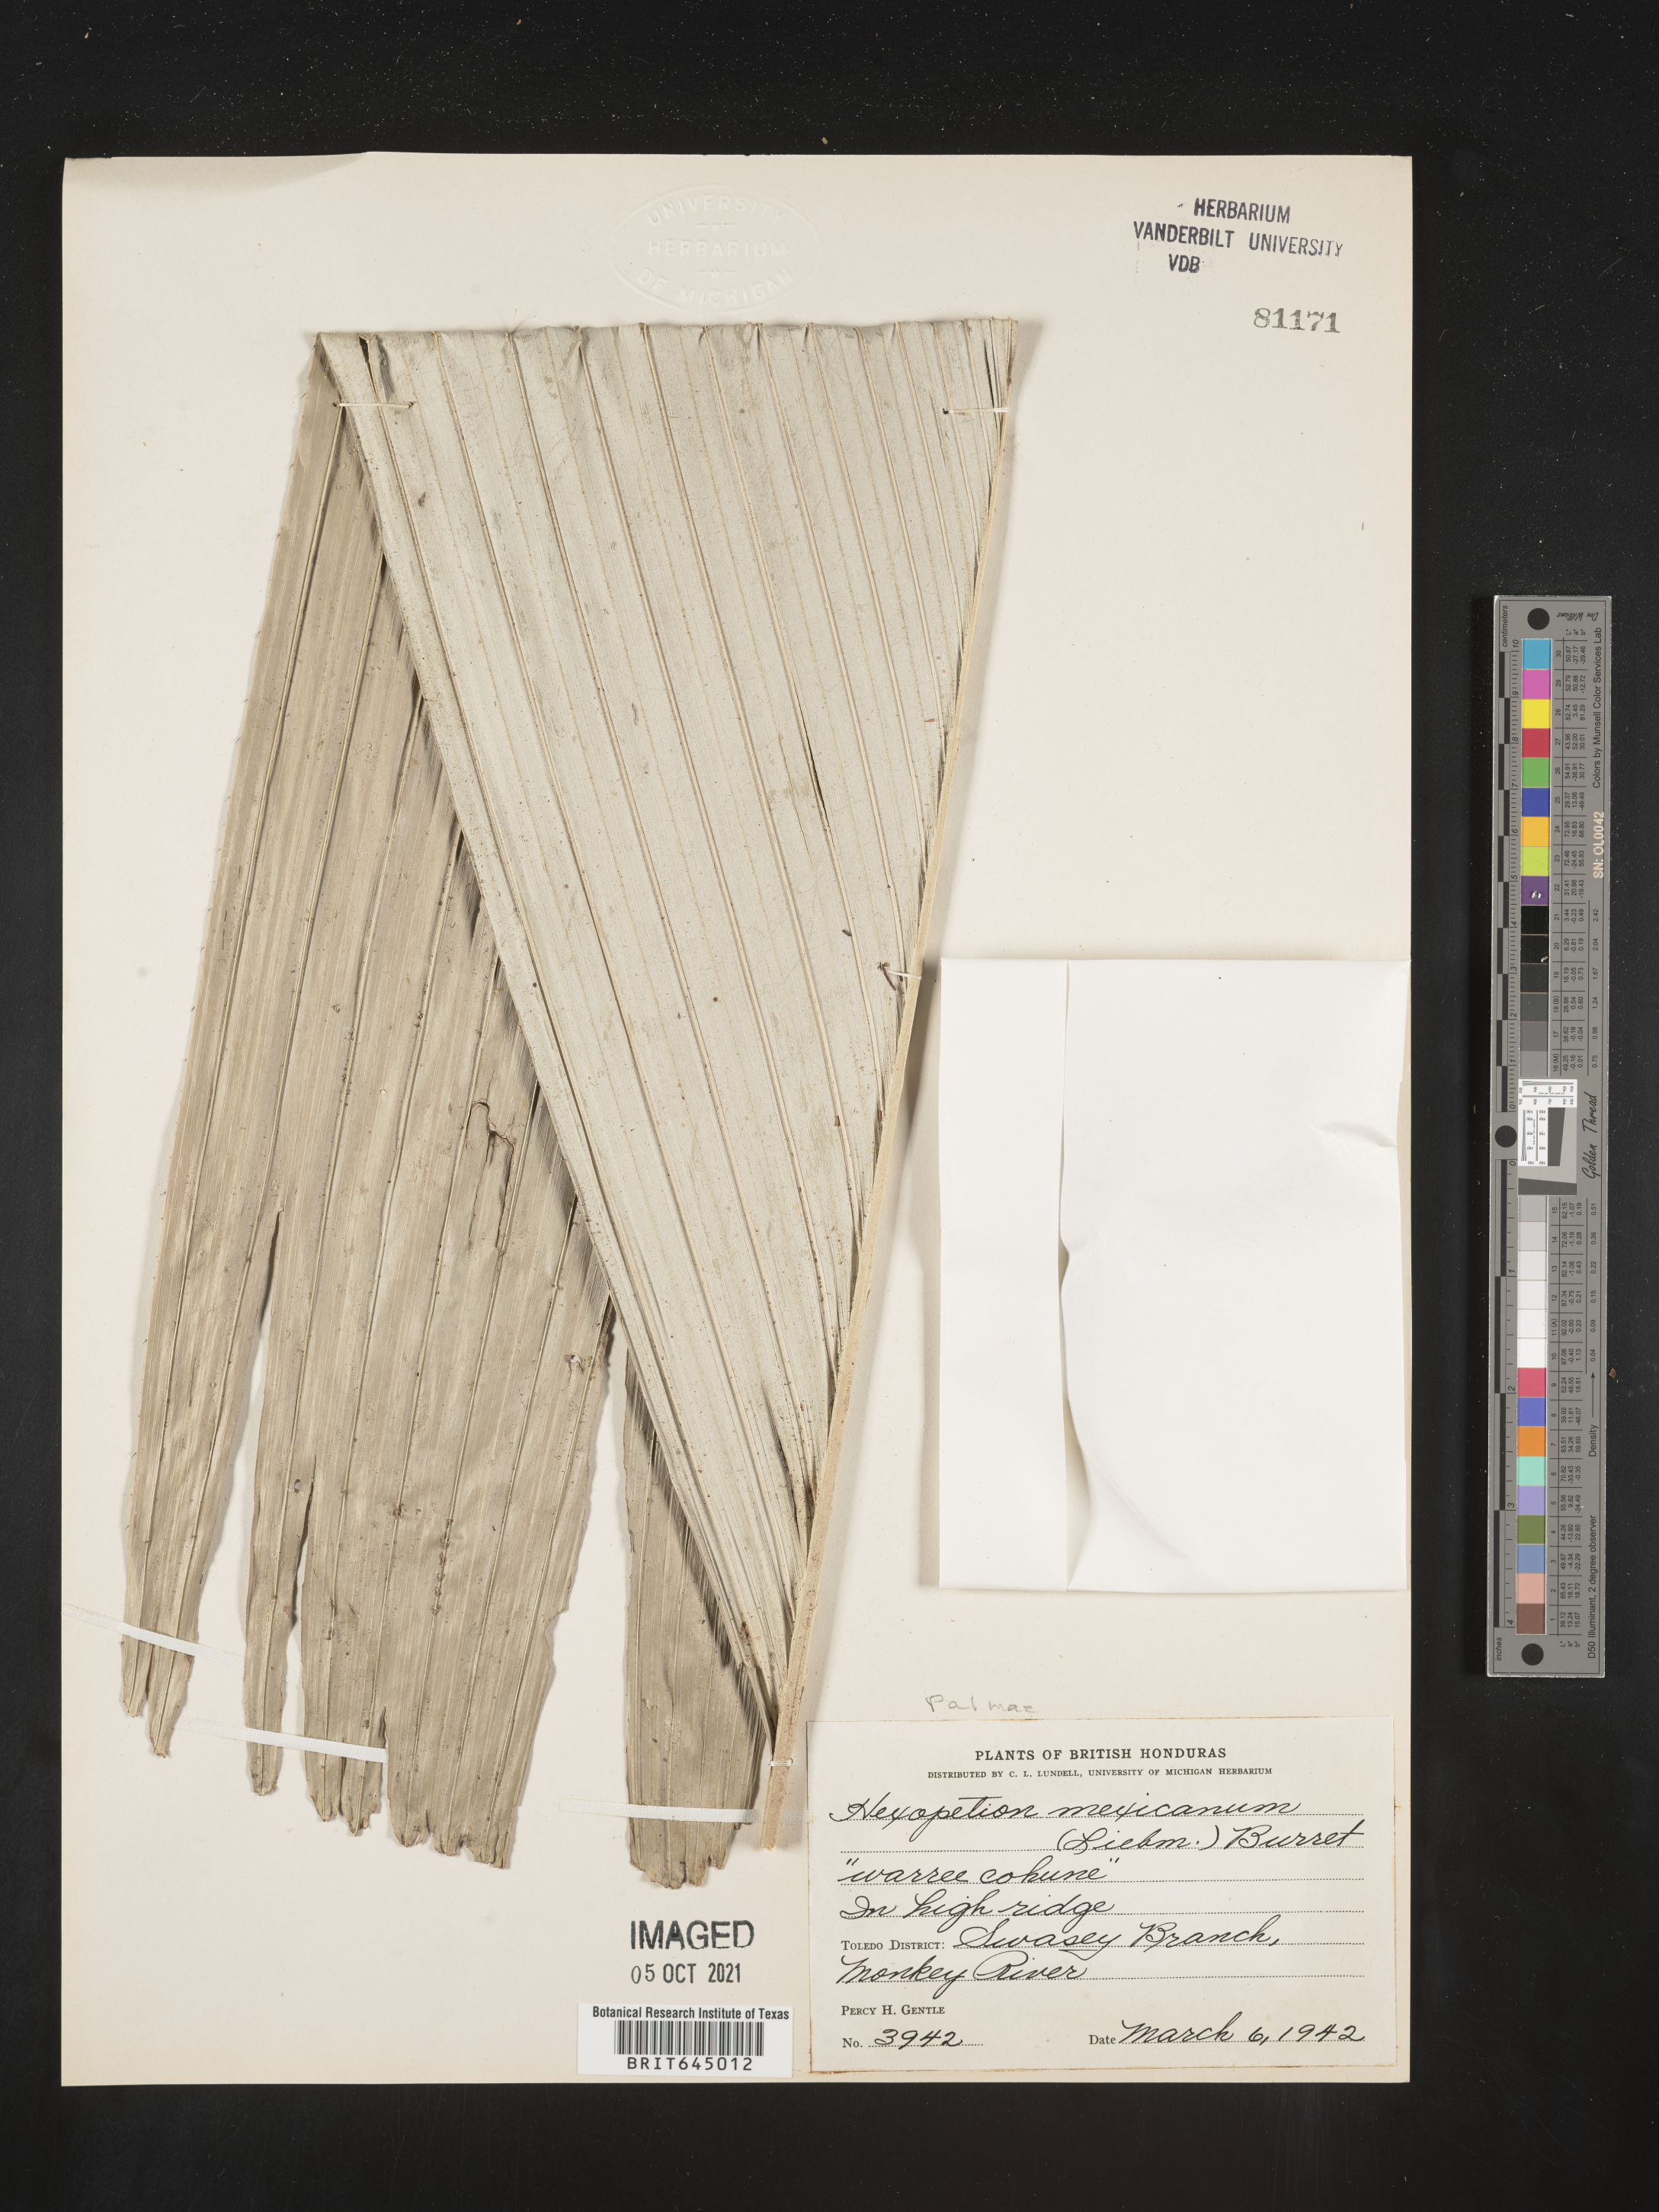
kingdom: Plantae
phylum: Tracheophyta
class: Liliopsida
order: Arecales
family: Arecaceae
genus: Astrocaryum
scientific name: Astrocaryum mexicanum
